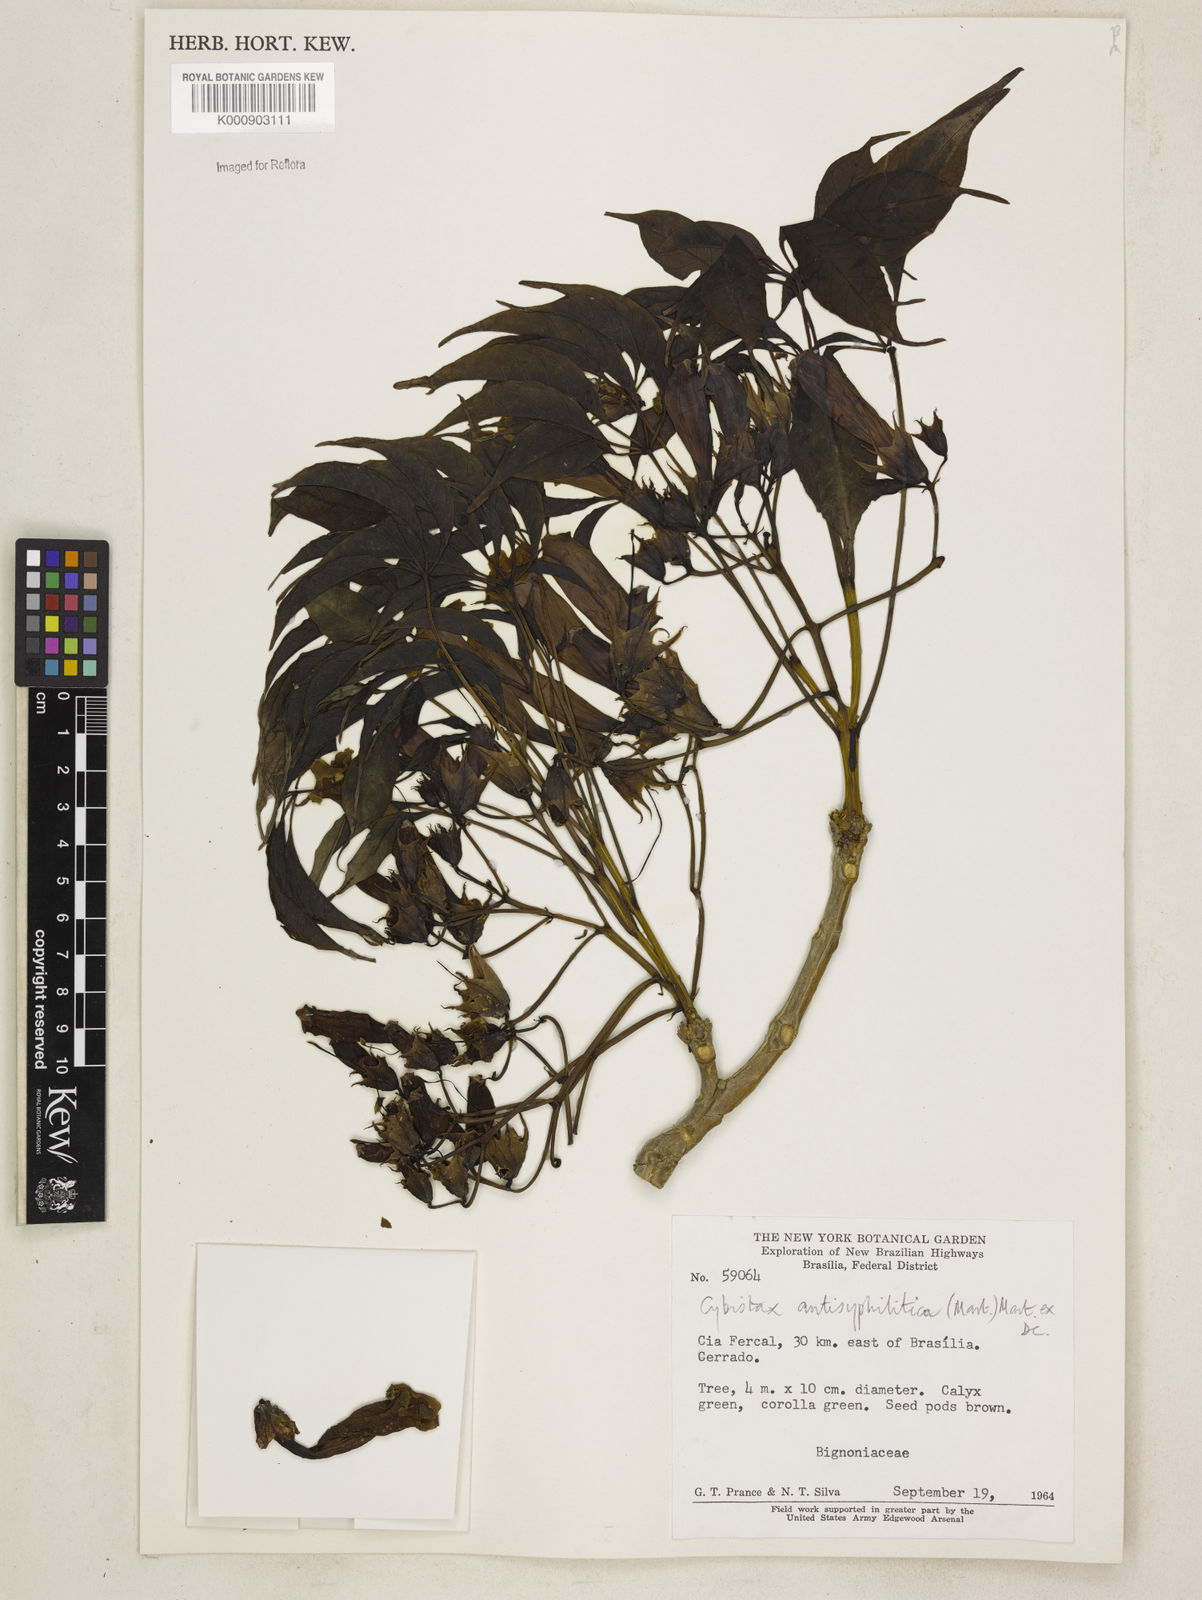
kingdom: Plantae
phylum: Tracheophyta
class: Magnoliopsida
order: Lamiales
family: Bignoniaceae
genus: Cybistax
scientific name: Cybistax antisyphilitica
